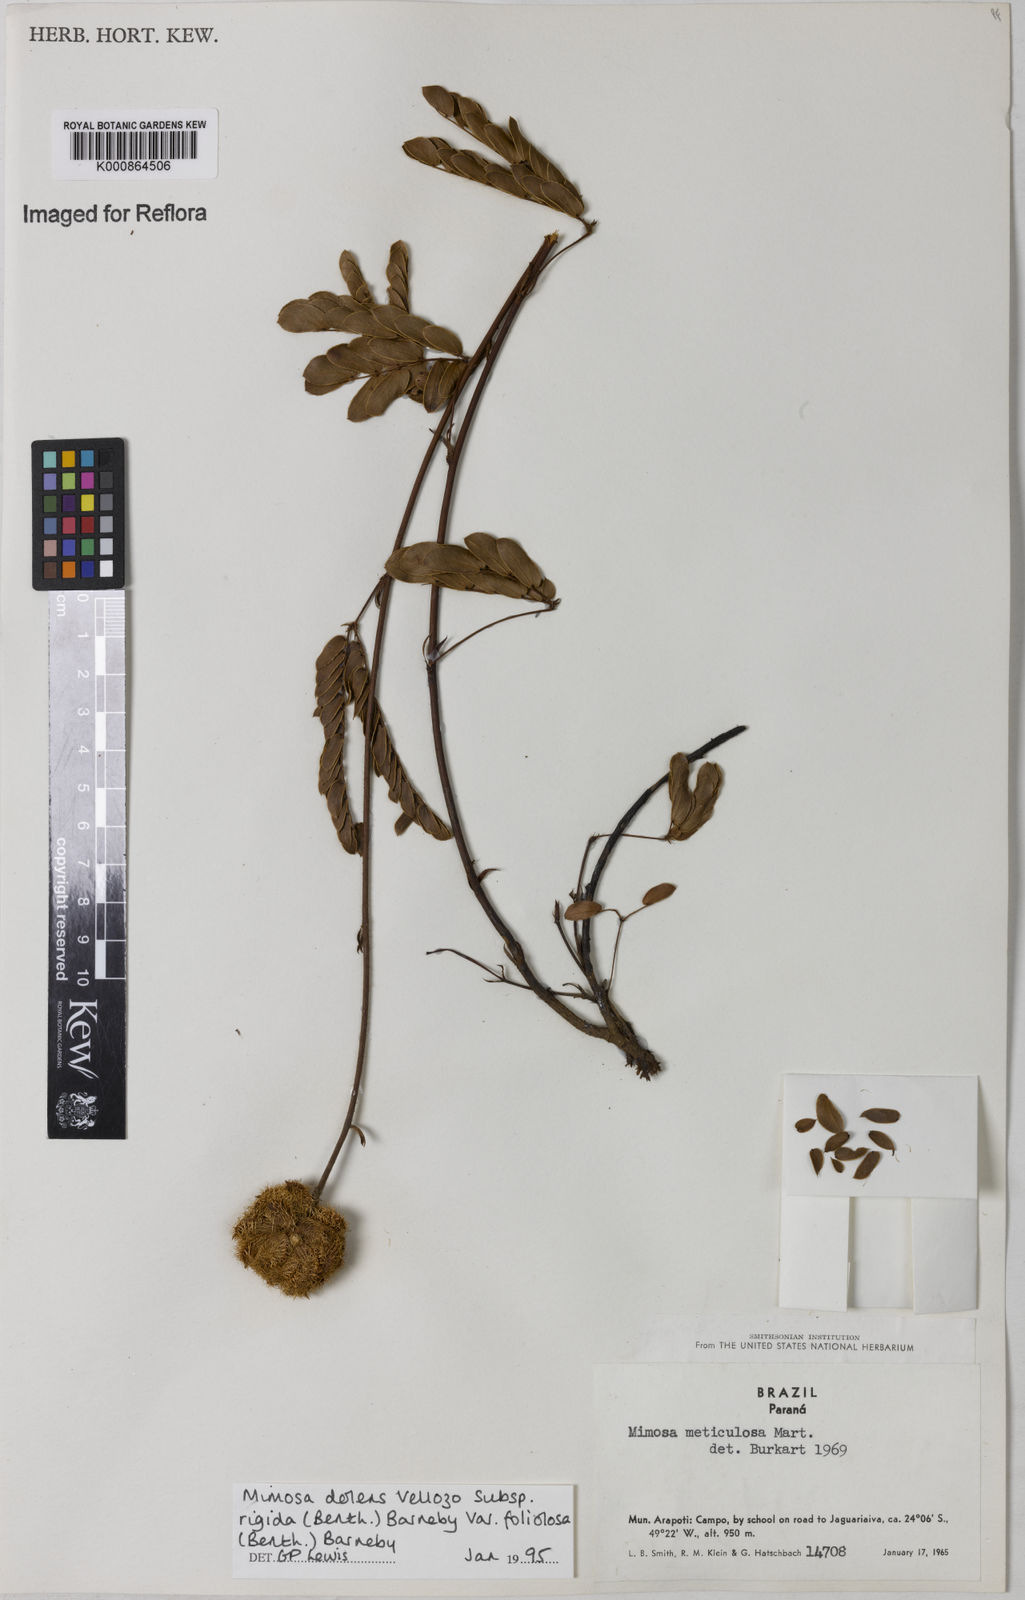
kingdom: Plantae
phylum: Tracheophyta
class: Magnoliopsida
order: Fabales
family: Fabaceae
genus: Mimosa
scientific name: Mimosa dolens
